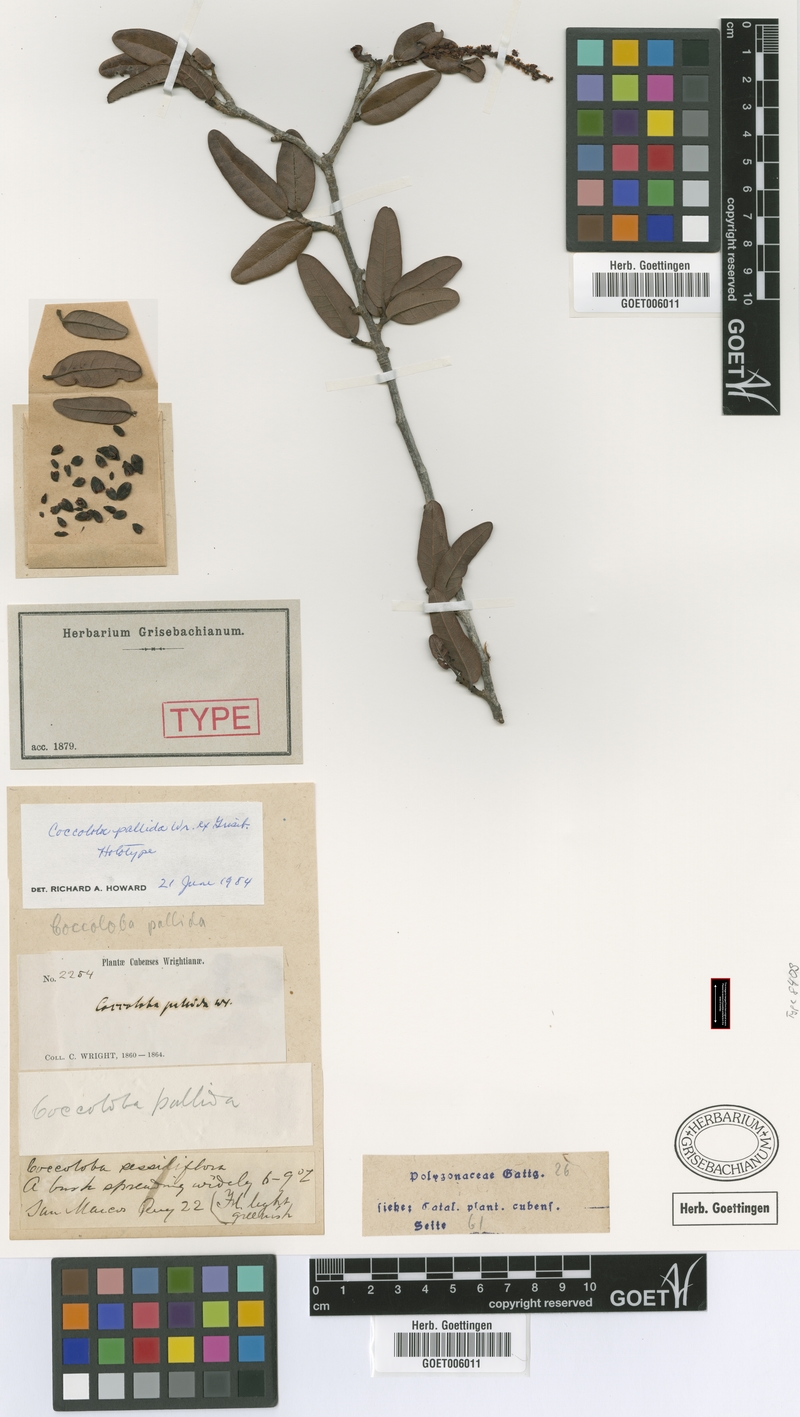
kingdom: Plantae
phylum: Tracheophyta
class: Magnoliopsida
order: Caryophyllales
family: Polygonaceae
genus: Coccoloba
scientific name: Coccoloba pallida
